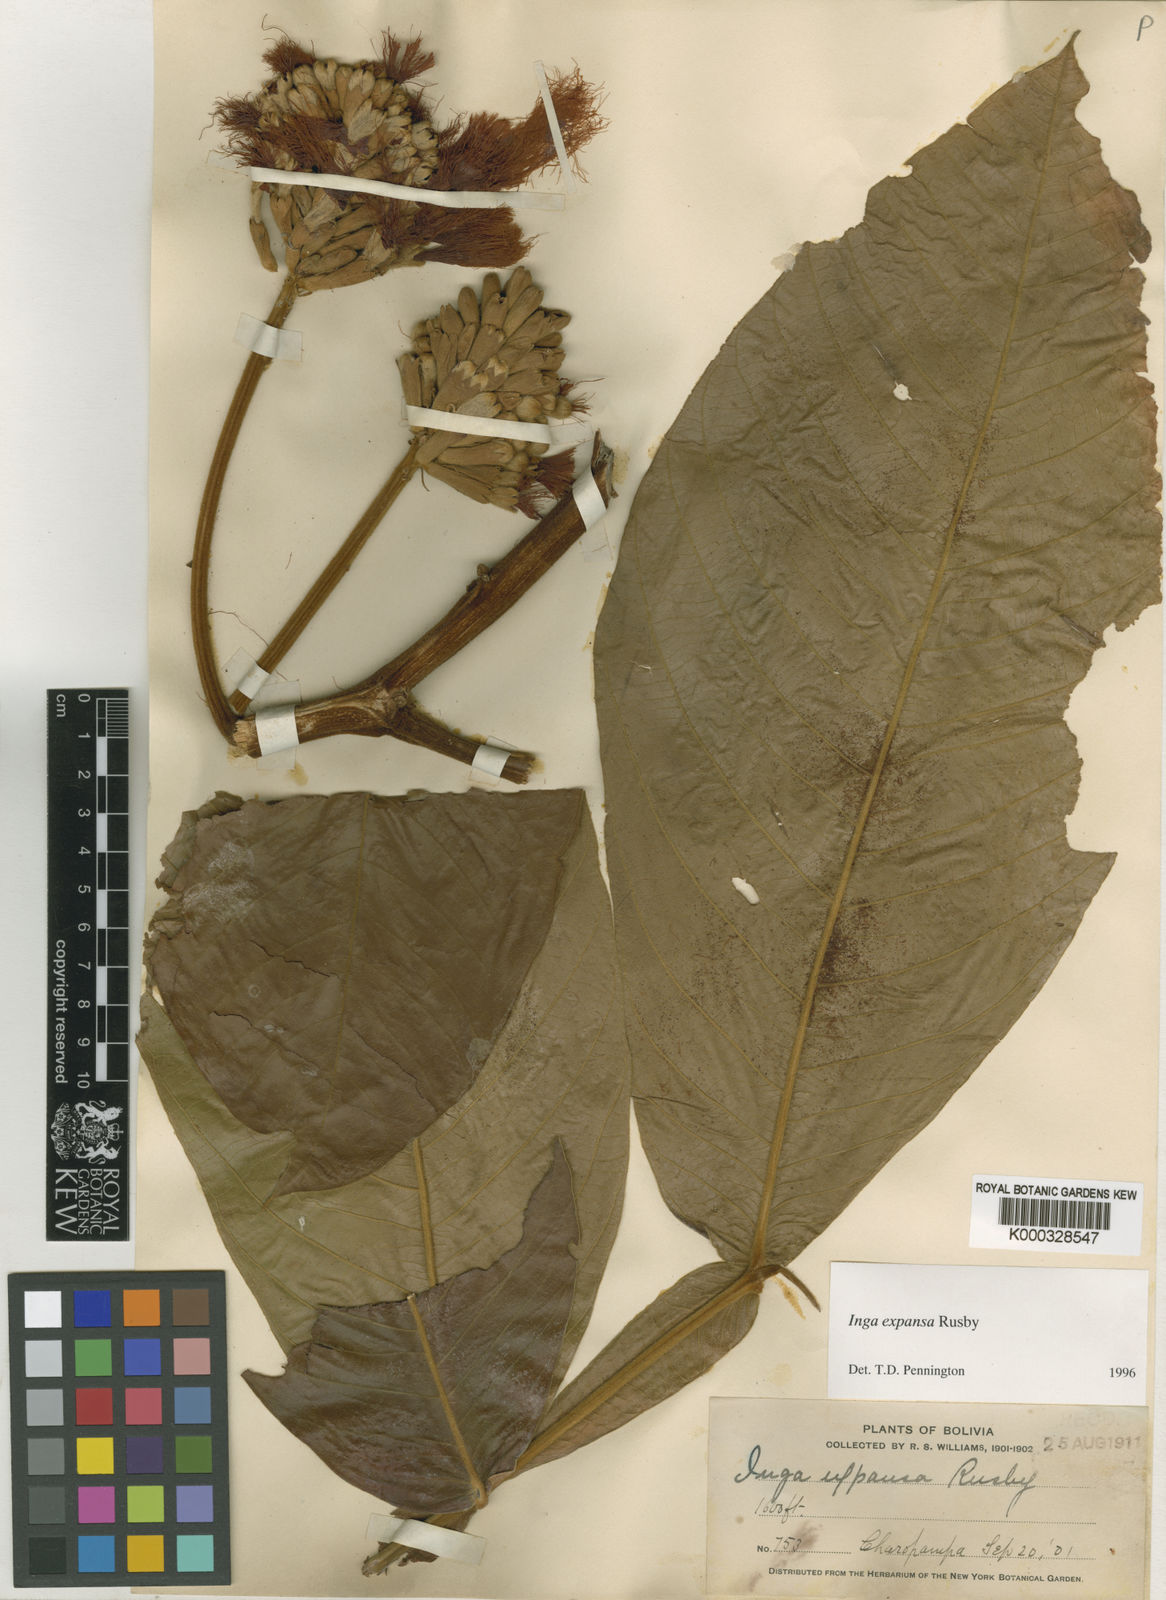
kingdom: Plantae
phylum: Tracheophyta
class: Magnoliopsida
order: Fabales
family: Fabaceae
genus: Inga
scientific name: Inga expansa
